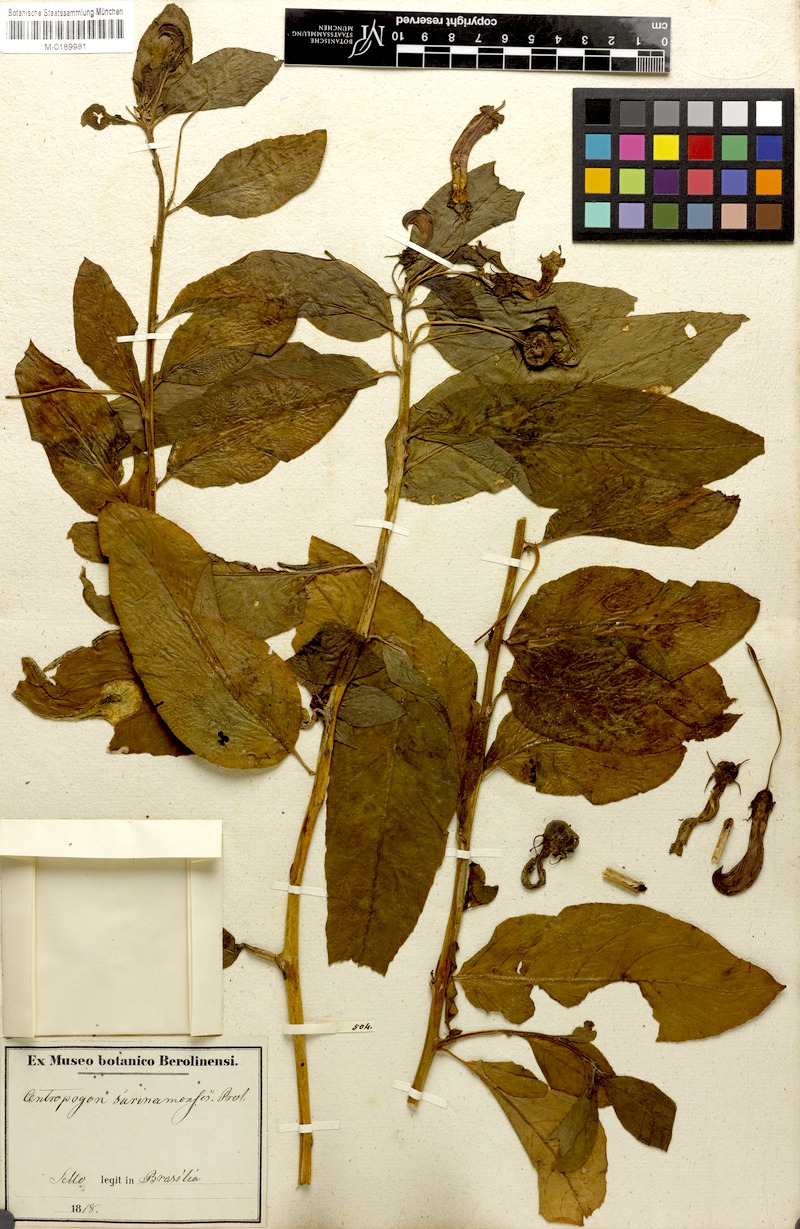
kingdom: Plantae
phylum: Tracheophyta
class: Magnoliopsida
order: Asterales
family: Campanulaceae
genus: Centropogon
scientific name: Centropogon cornutus
